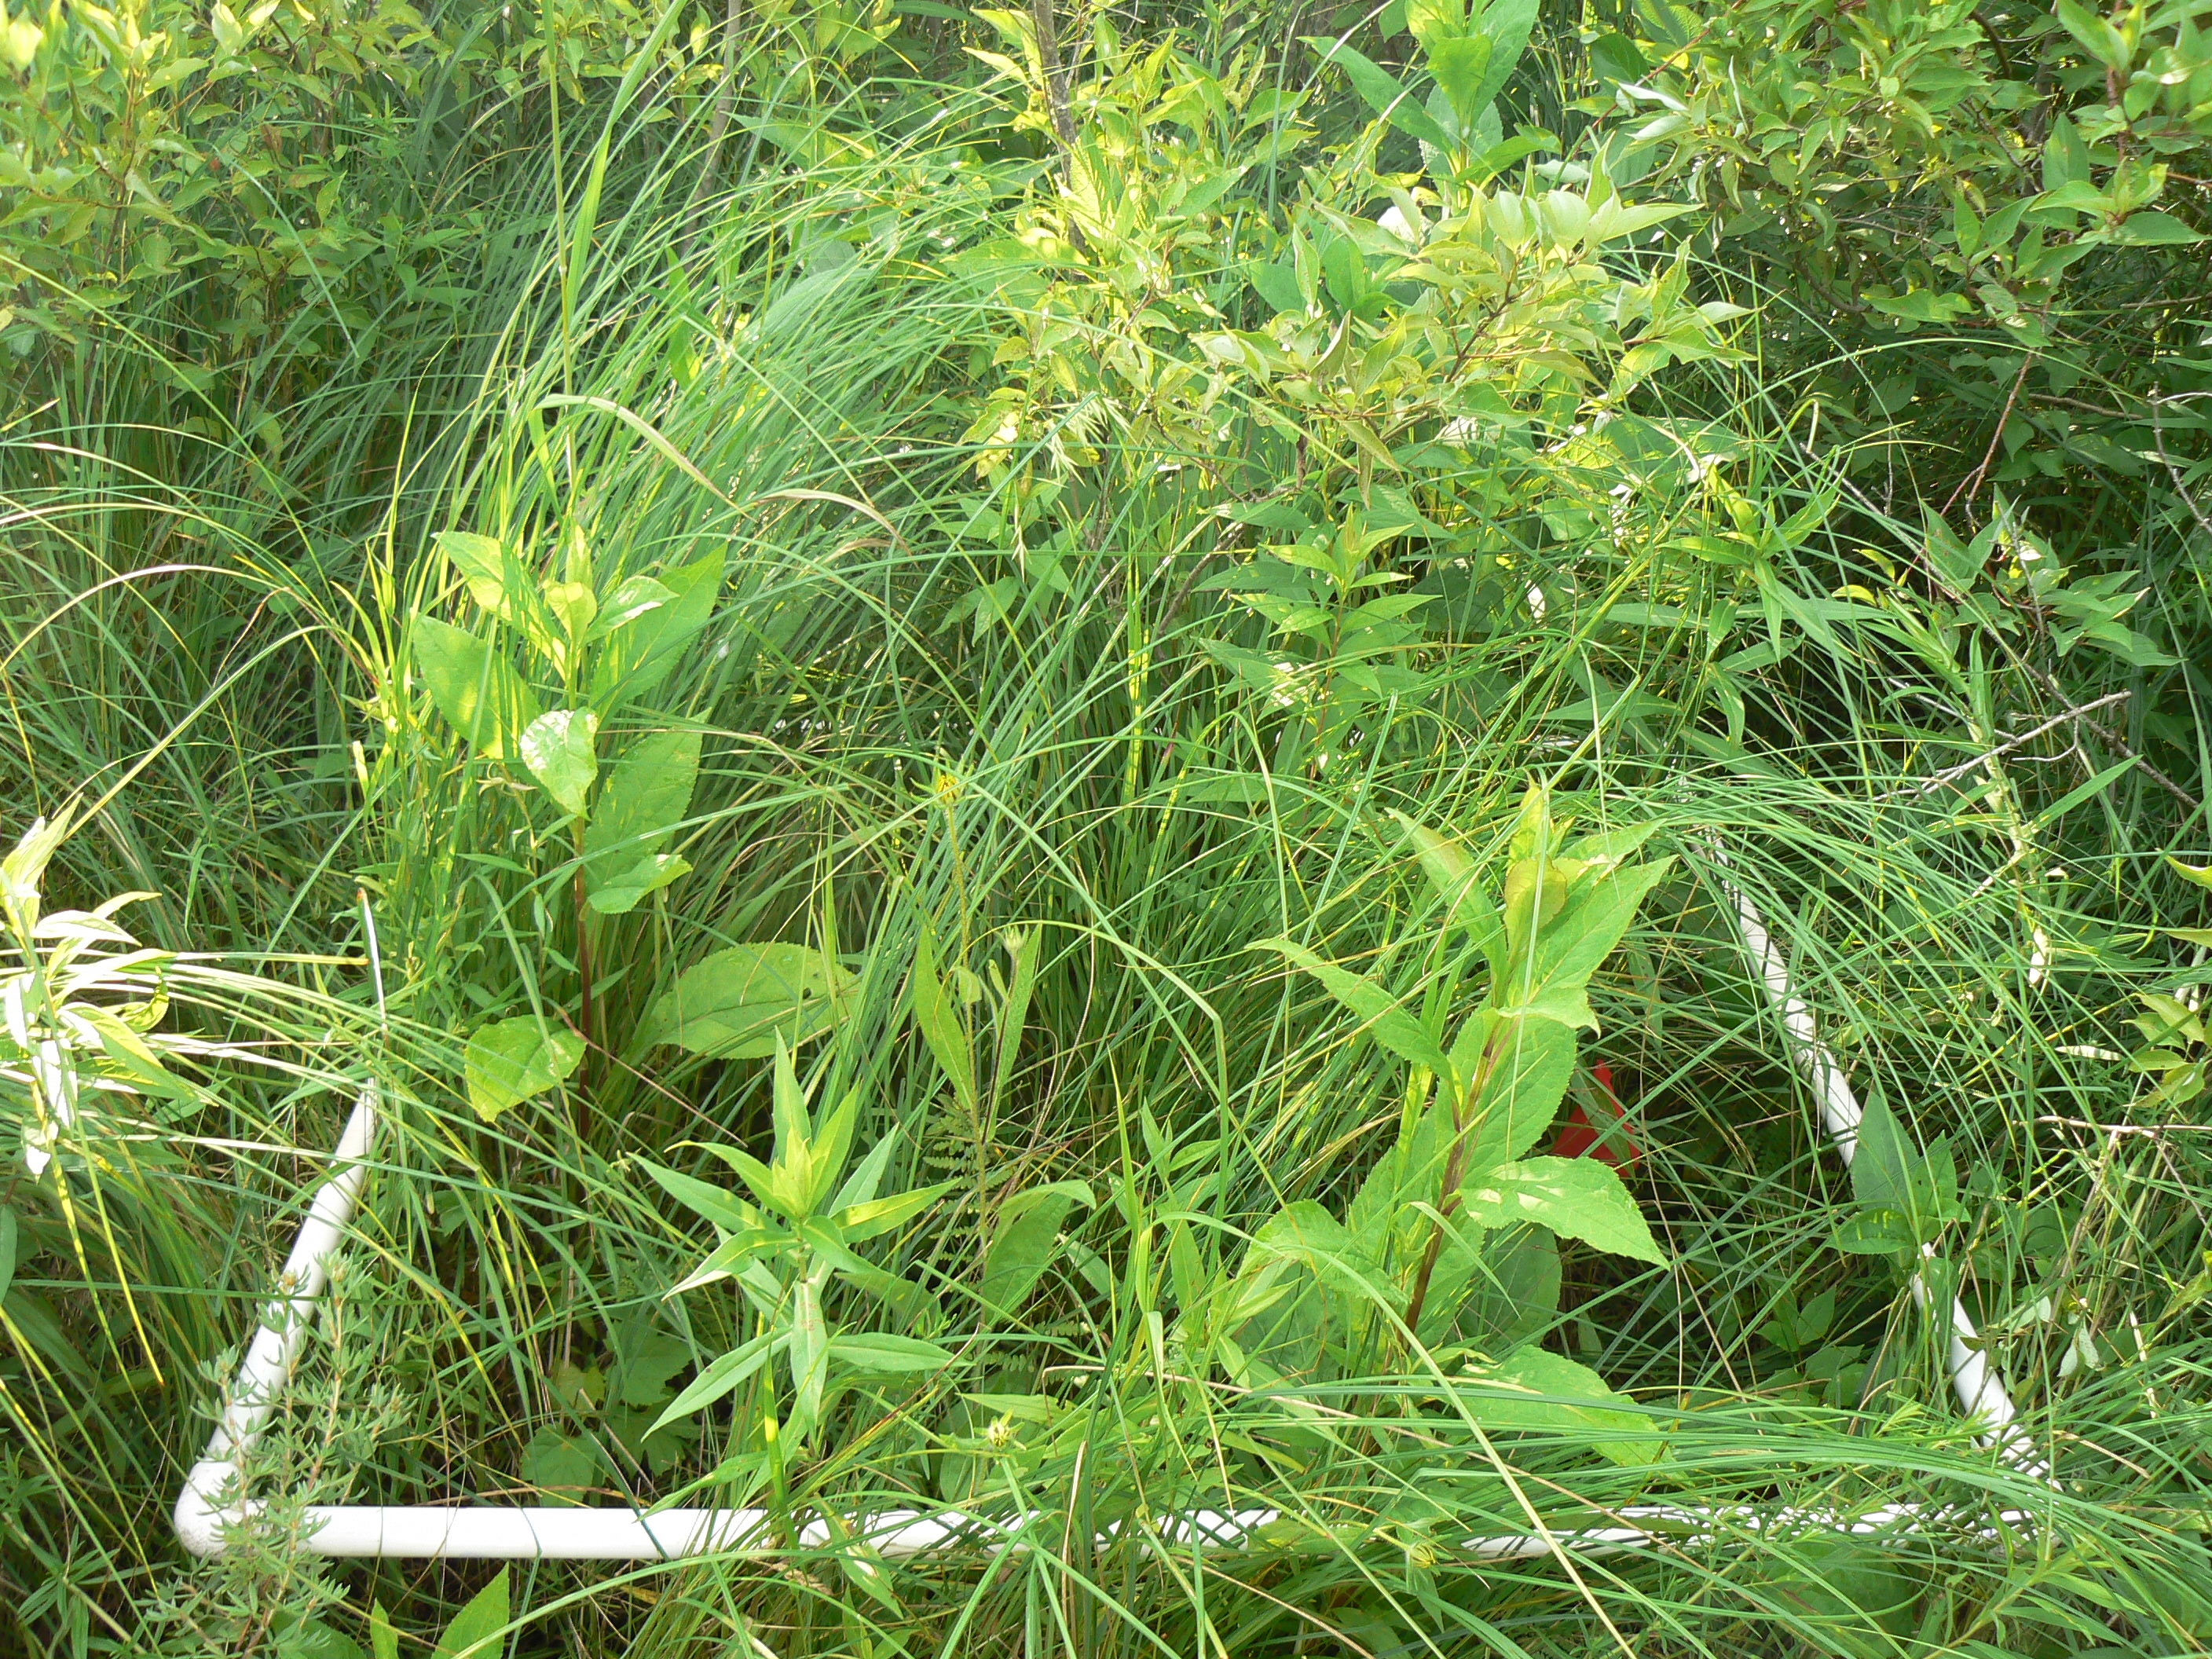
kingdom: Plantae
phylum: Tracheophyta
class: Magnoliopsida
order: Sapindales
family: Anacardiaceae
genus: Toxicodendron
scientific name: Toxicodendron vernix
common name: Poison sumac
